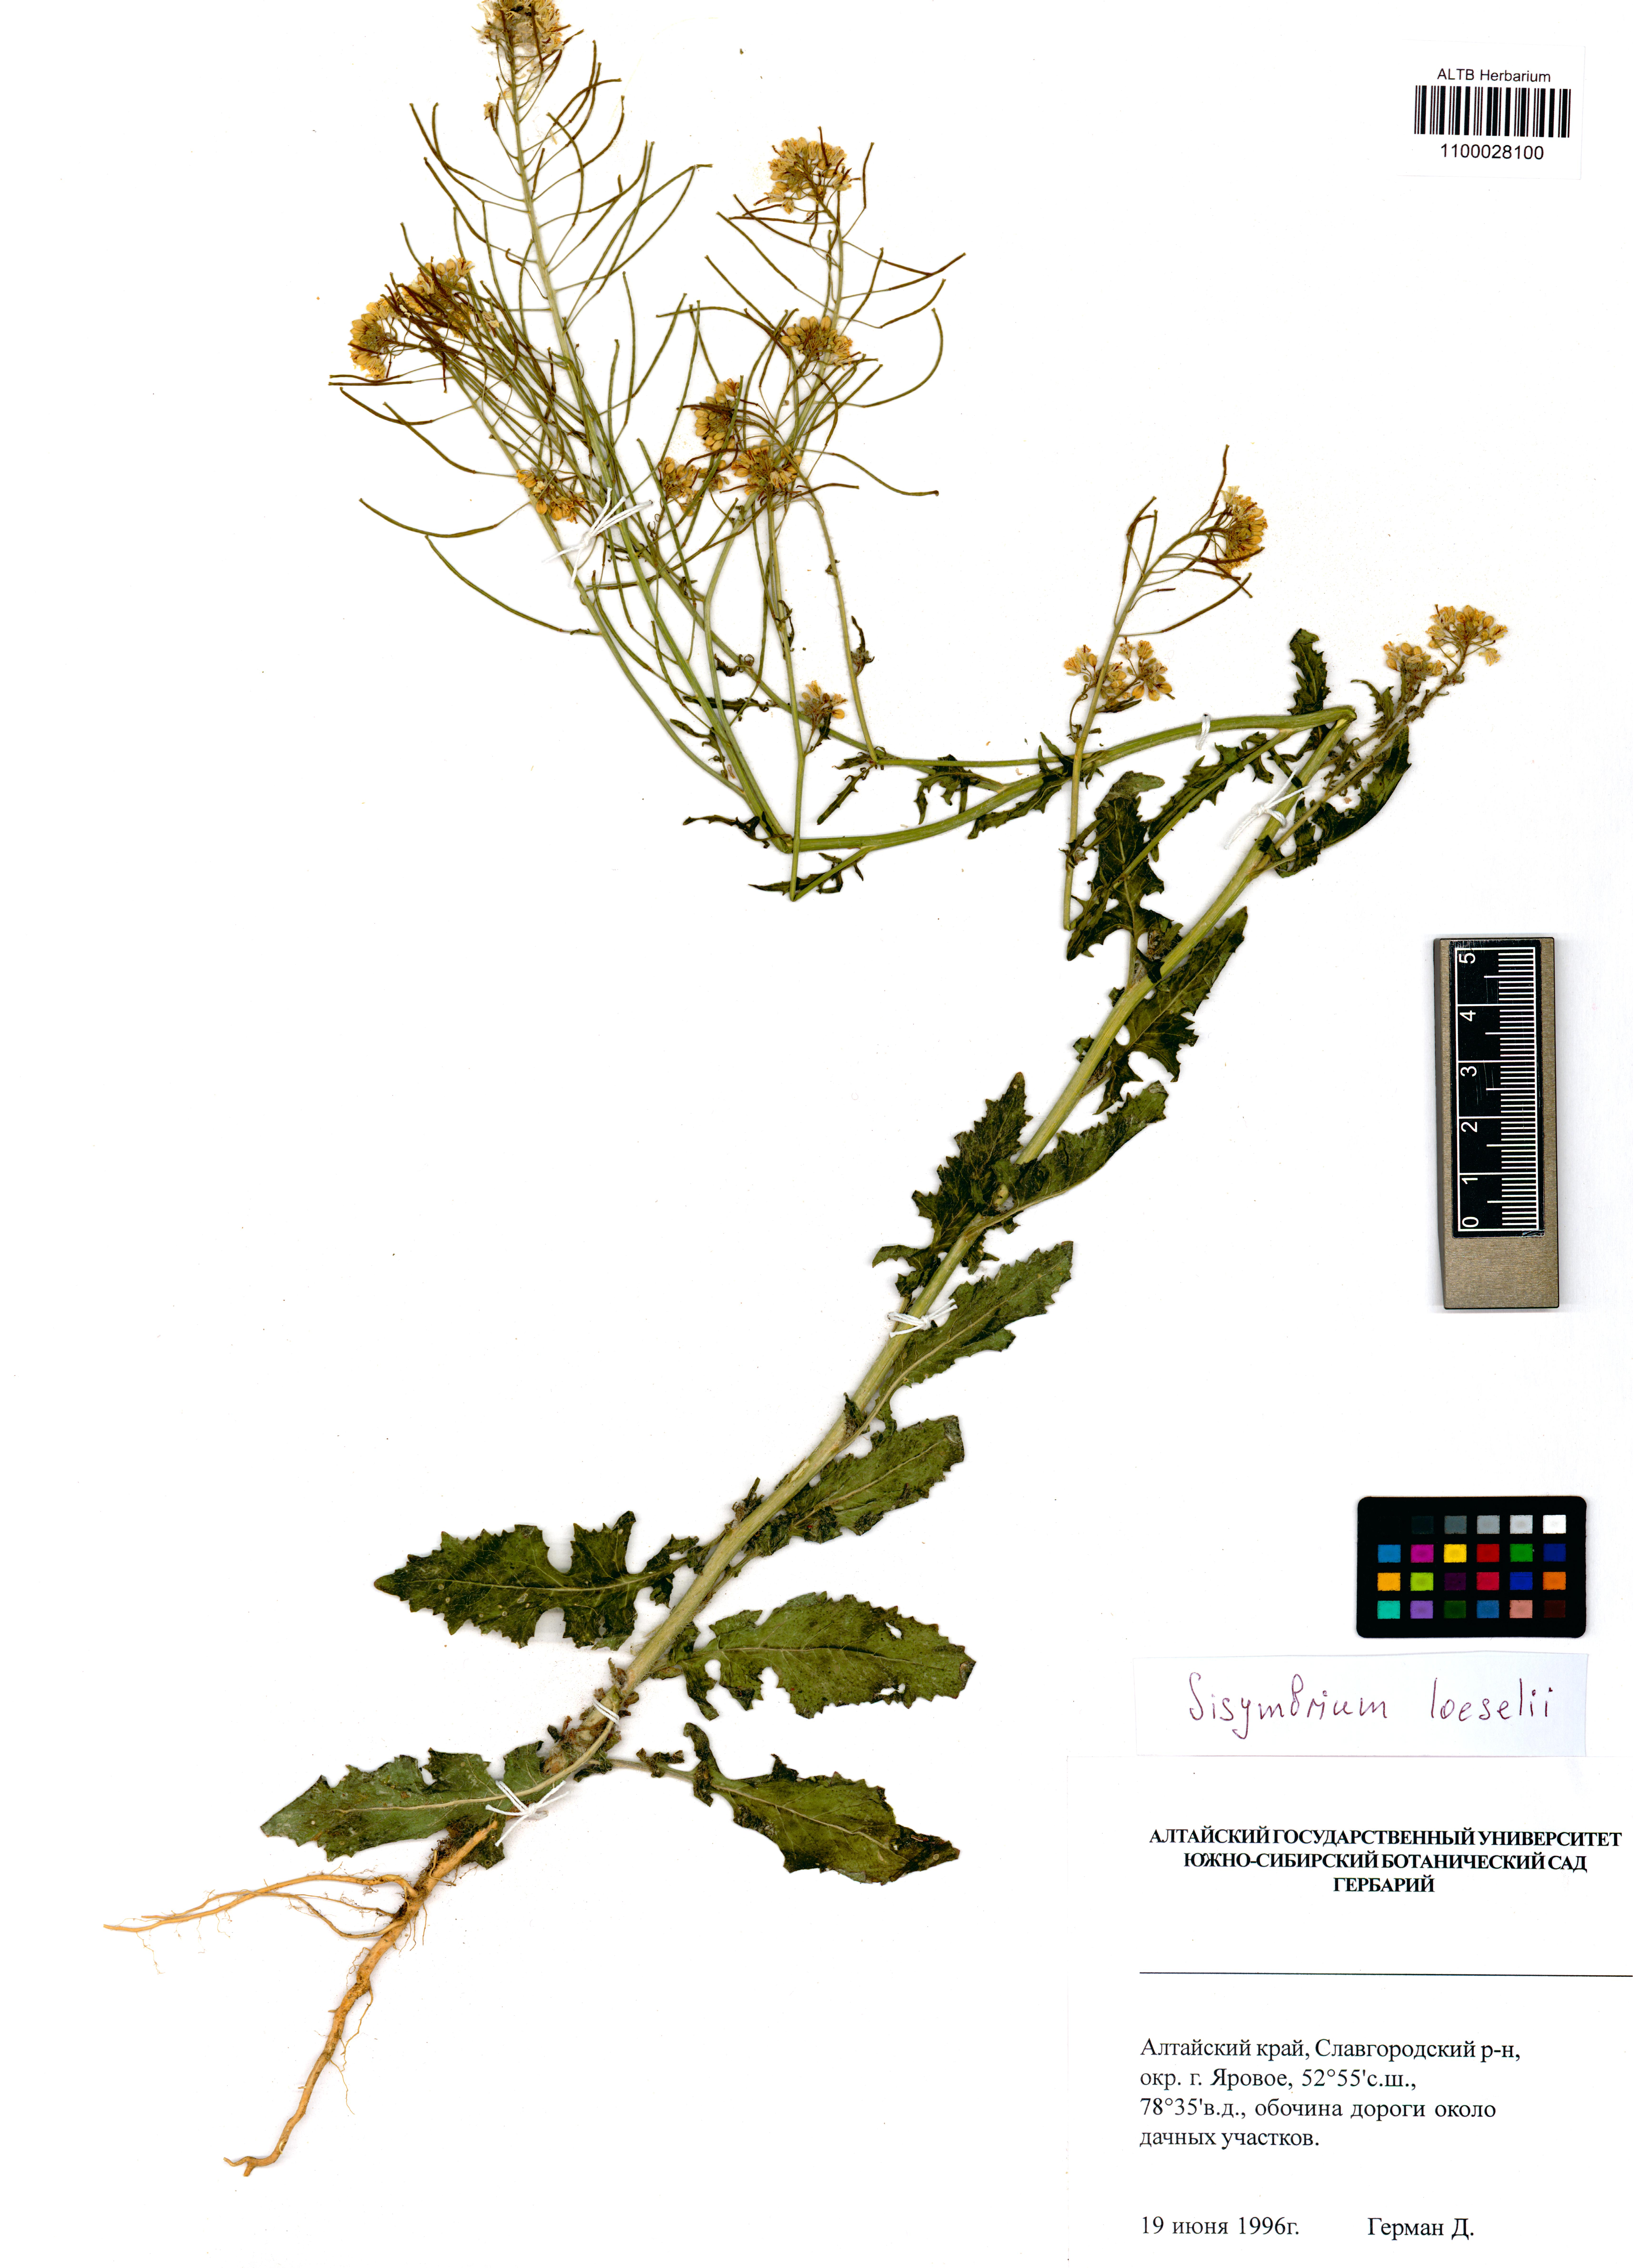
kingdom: Plantae
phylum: Tracheophyta
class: Magnoliopsida
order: Brassicales
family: Brassicaceae
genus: Sisymbrium
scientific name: Sisymbrium loeselii
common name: False london-rocket
